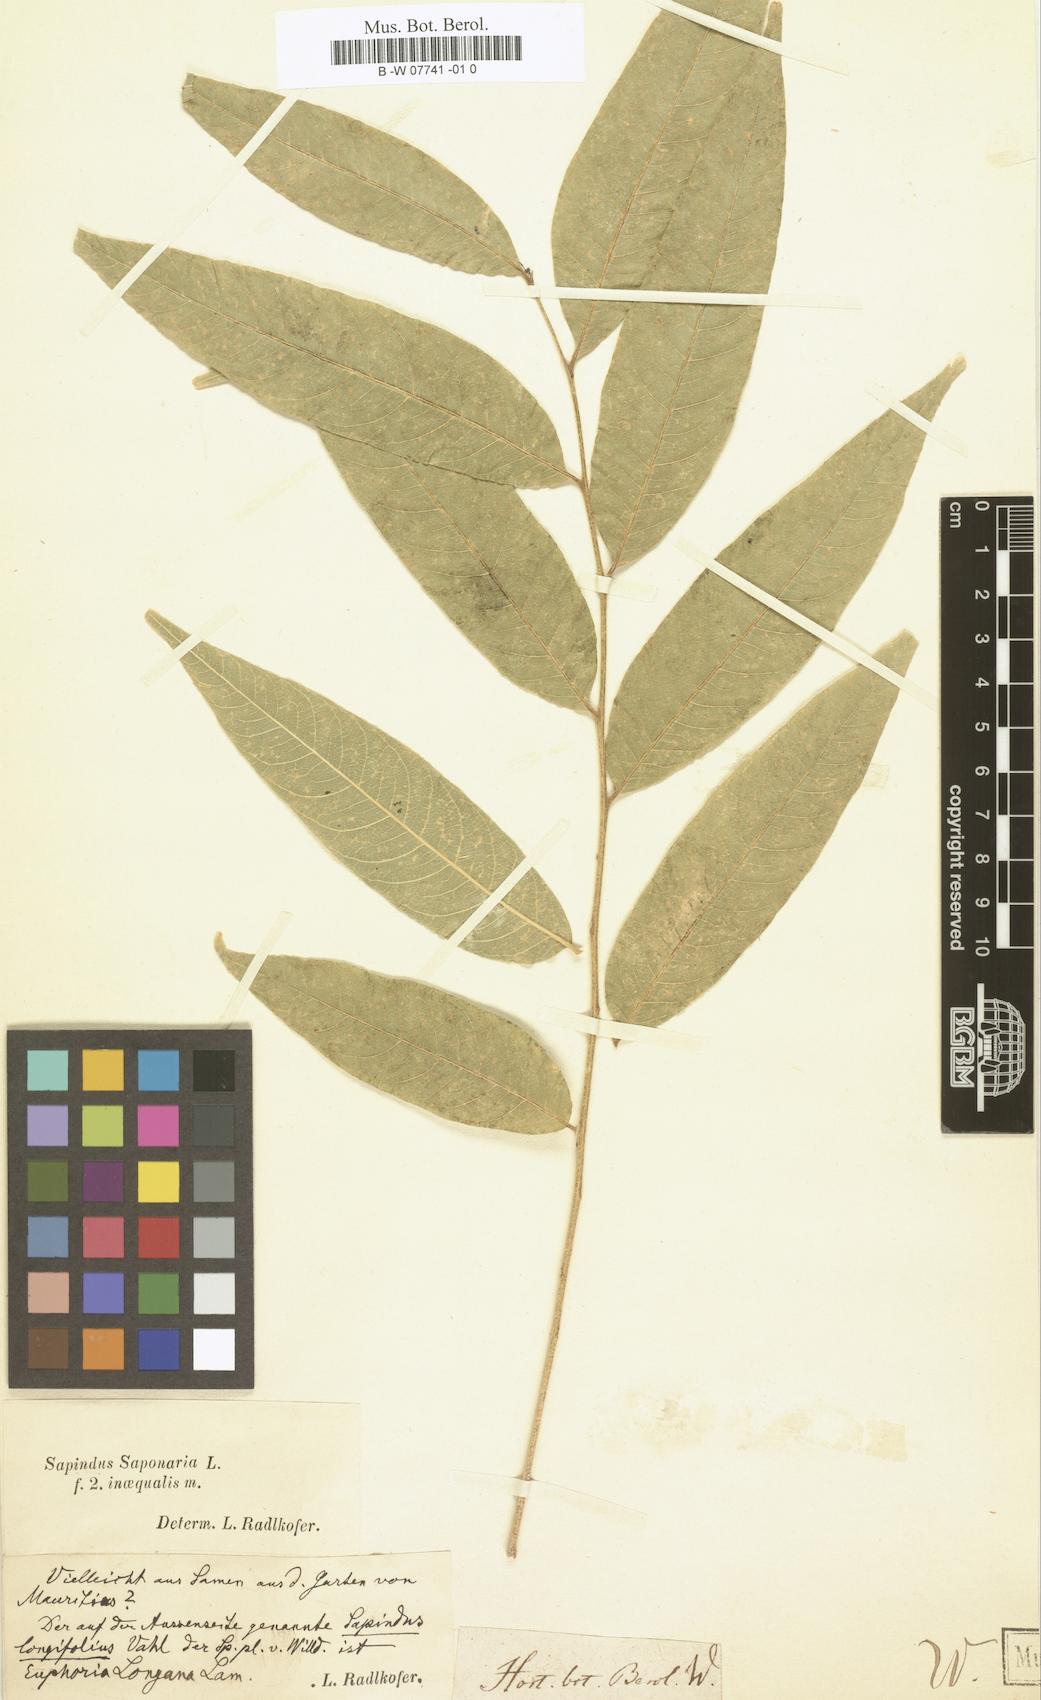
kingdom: Plantae
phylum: Tracheophyta
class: Magnoliopsida
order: Sapindales
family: Sapindaceae
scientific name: Sapindaceae
